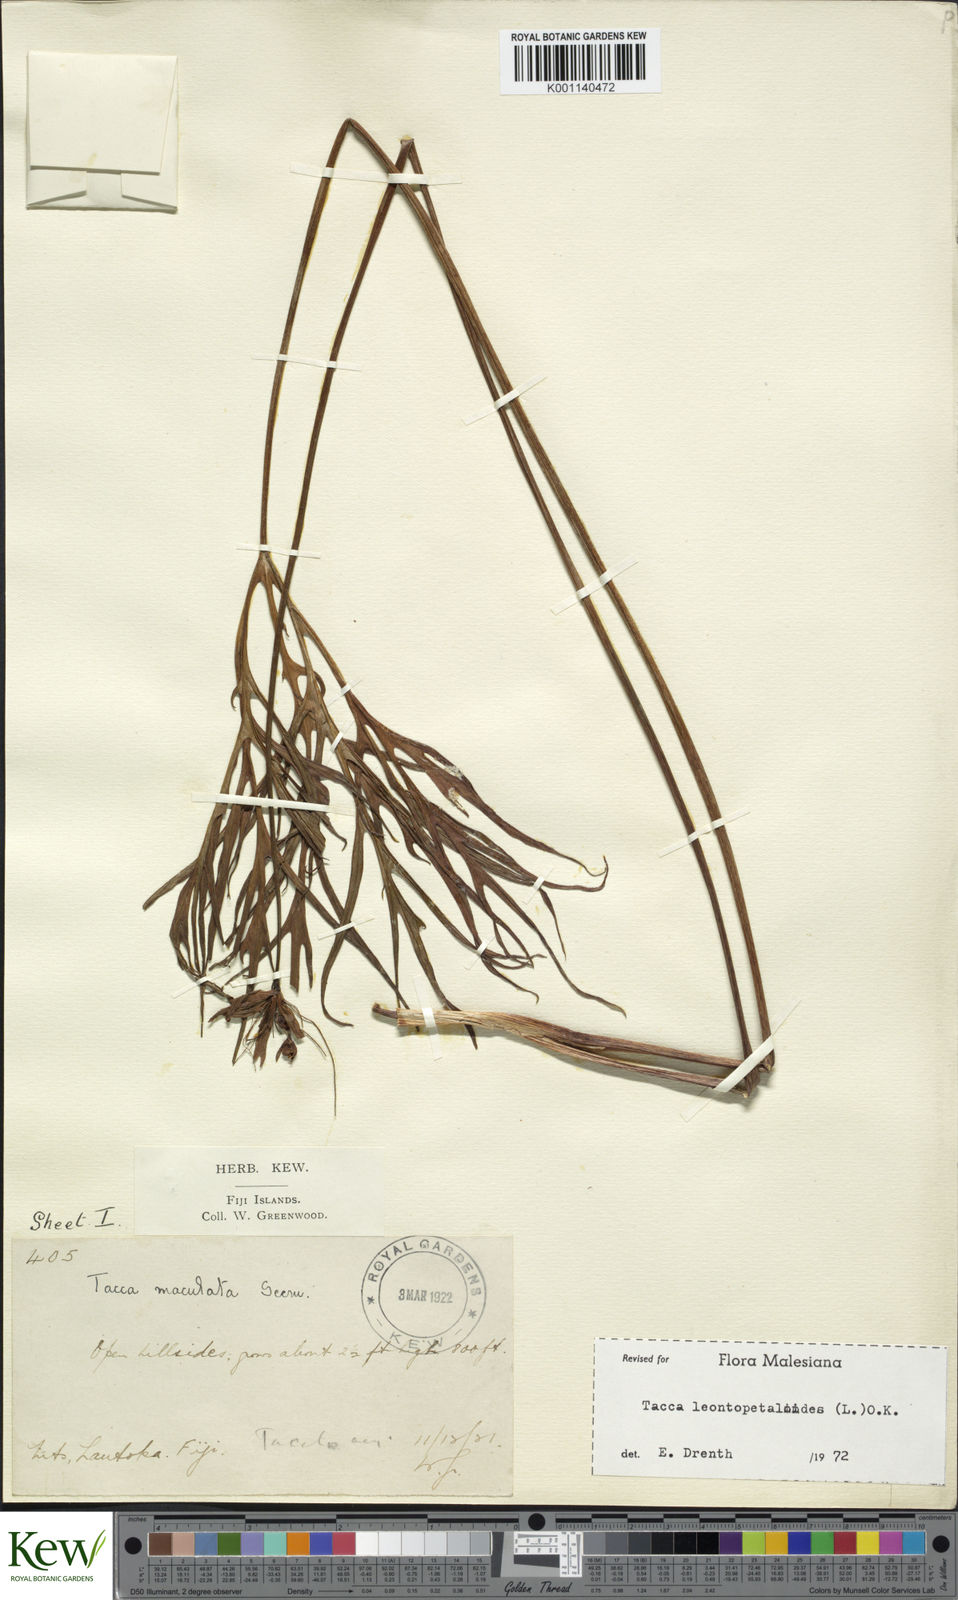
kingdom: Plantae
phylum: Tracheophyta
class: Liliopsida
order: Dioscoreales
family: Dioscoreaceae
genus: Tacca
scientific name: Tacca leontopetaloides
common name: Arrowroot
